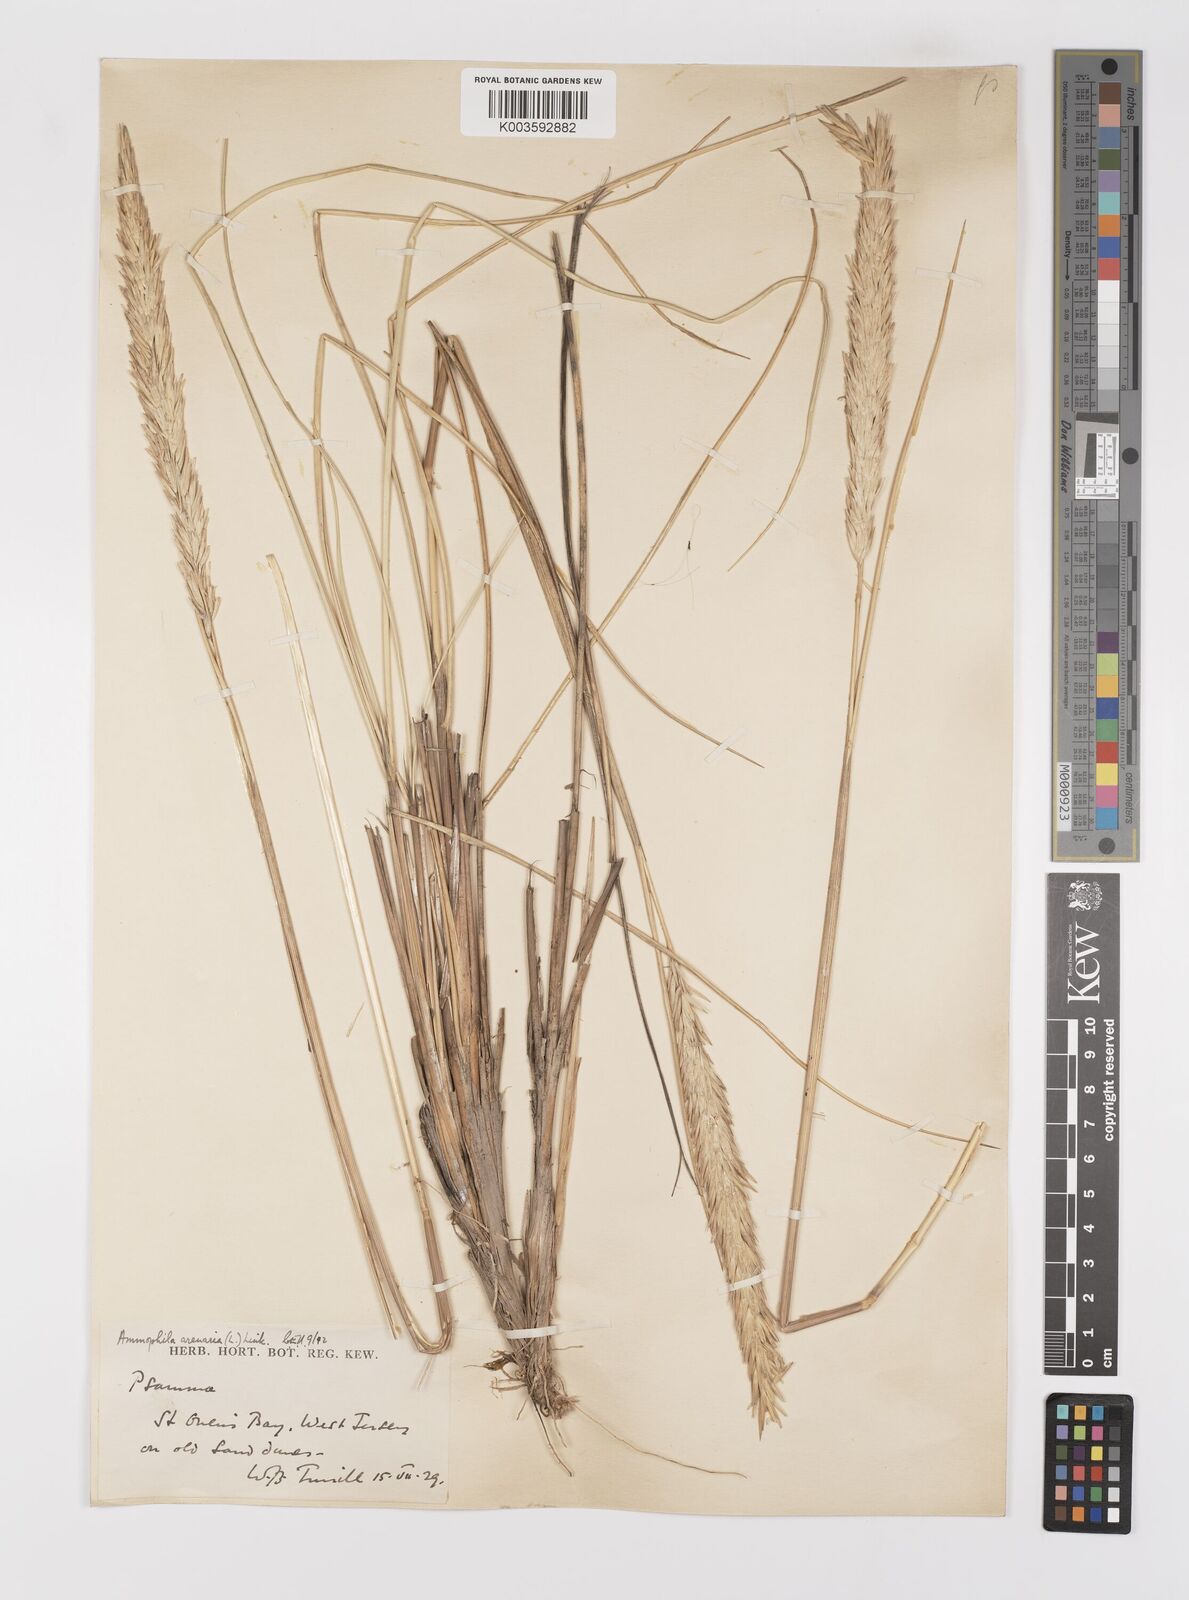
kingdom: Plantae
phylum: Tracheophyta
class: Liliopsida
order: Poales
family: Poaceae
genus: Calamagrostis
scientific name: Calamagrostis arenaria
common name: European beachgrass
